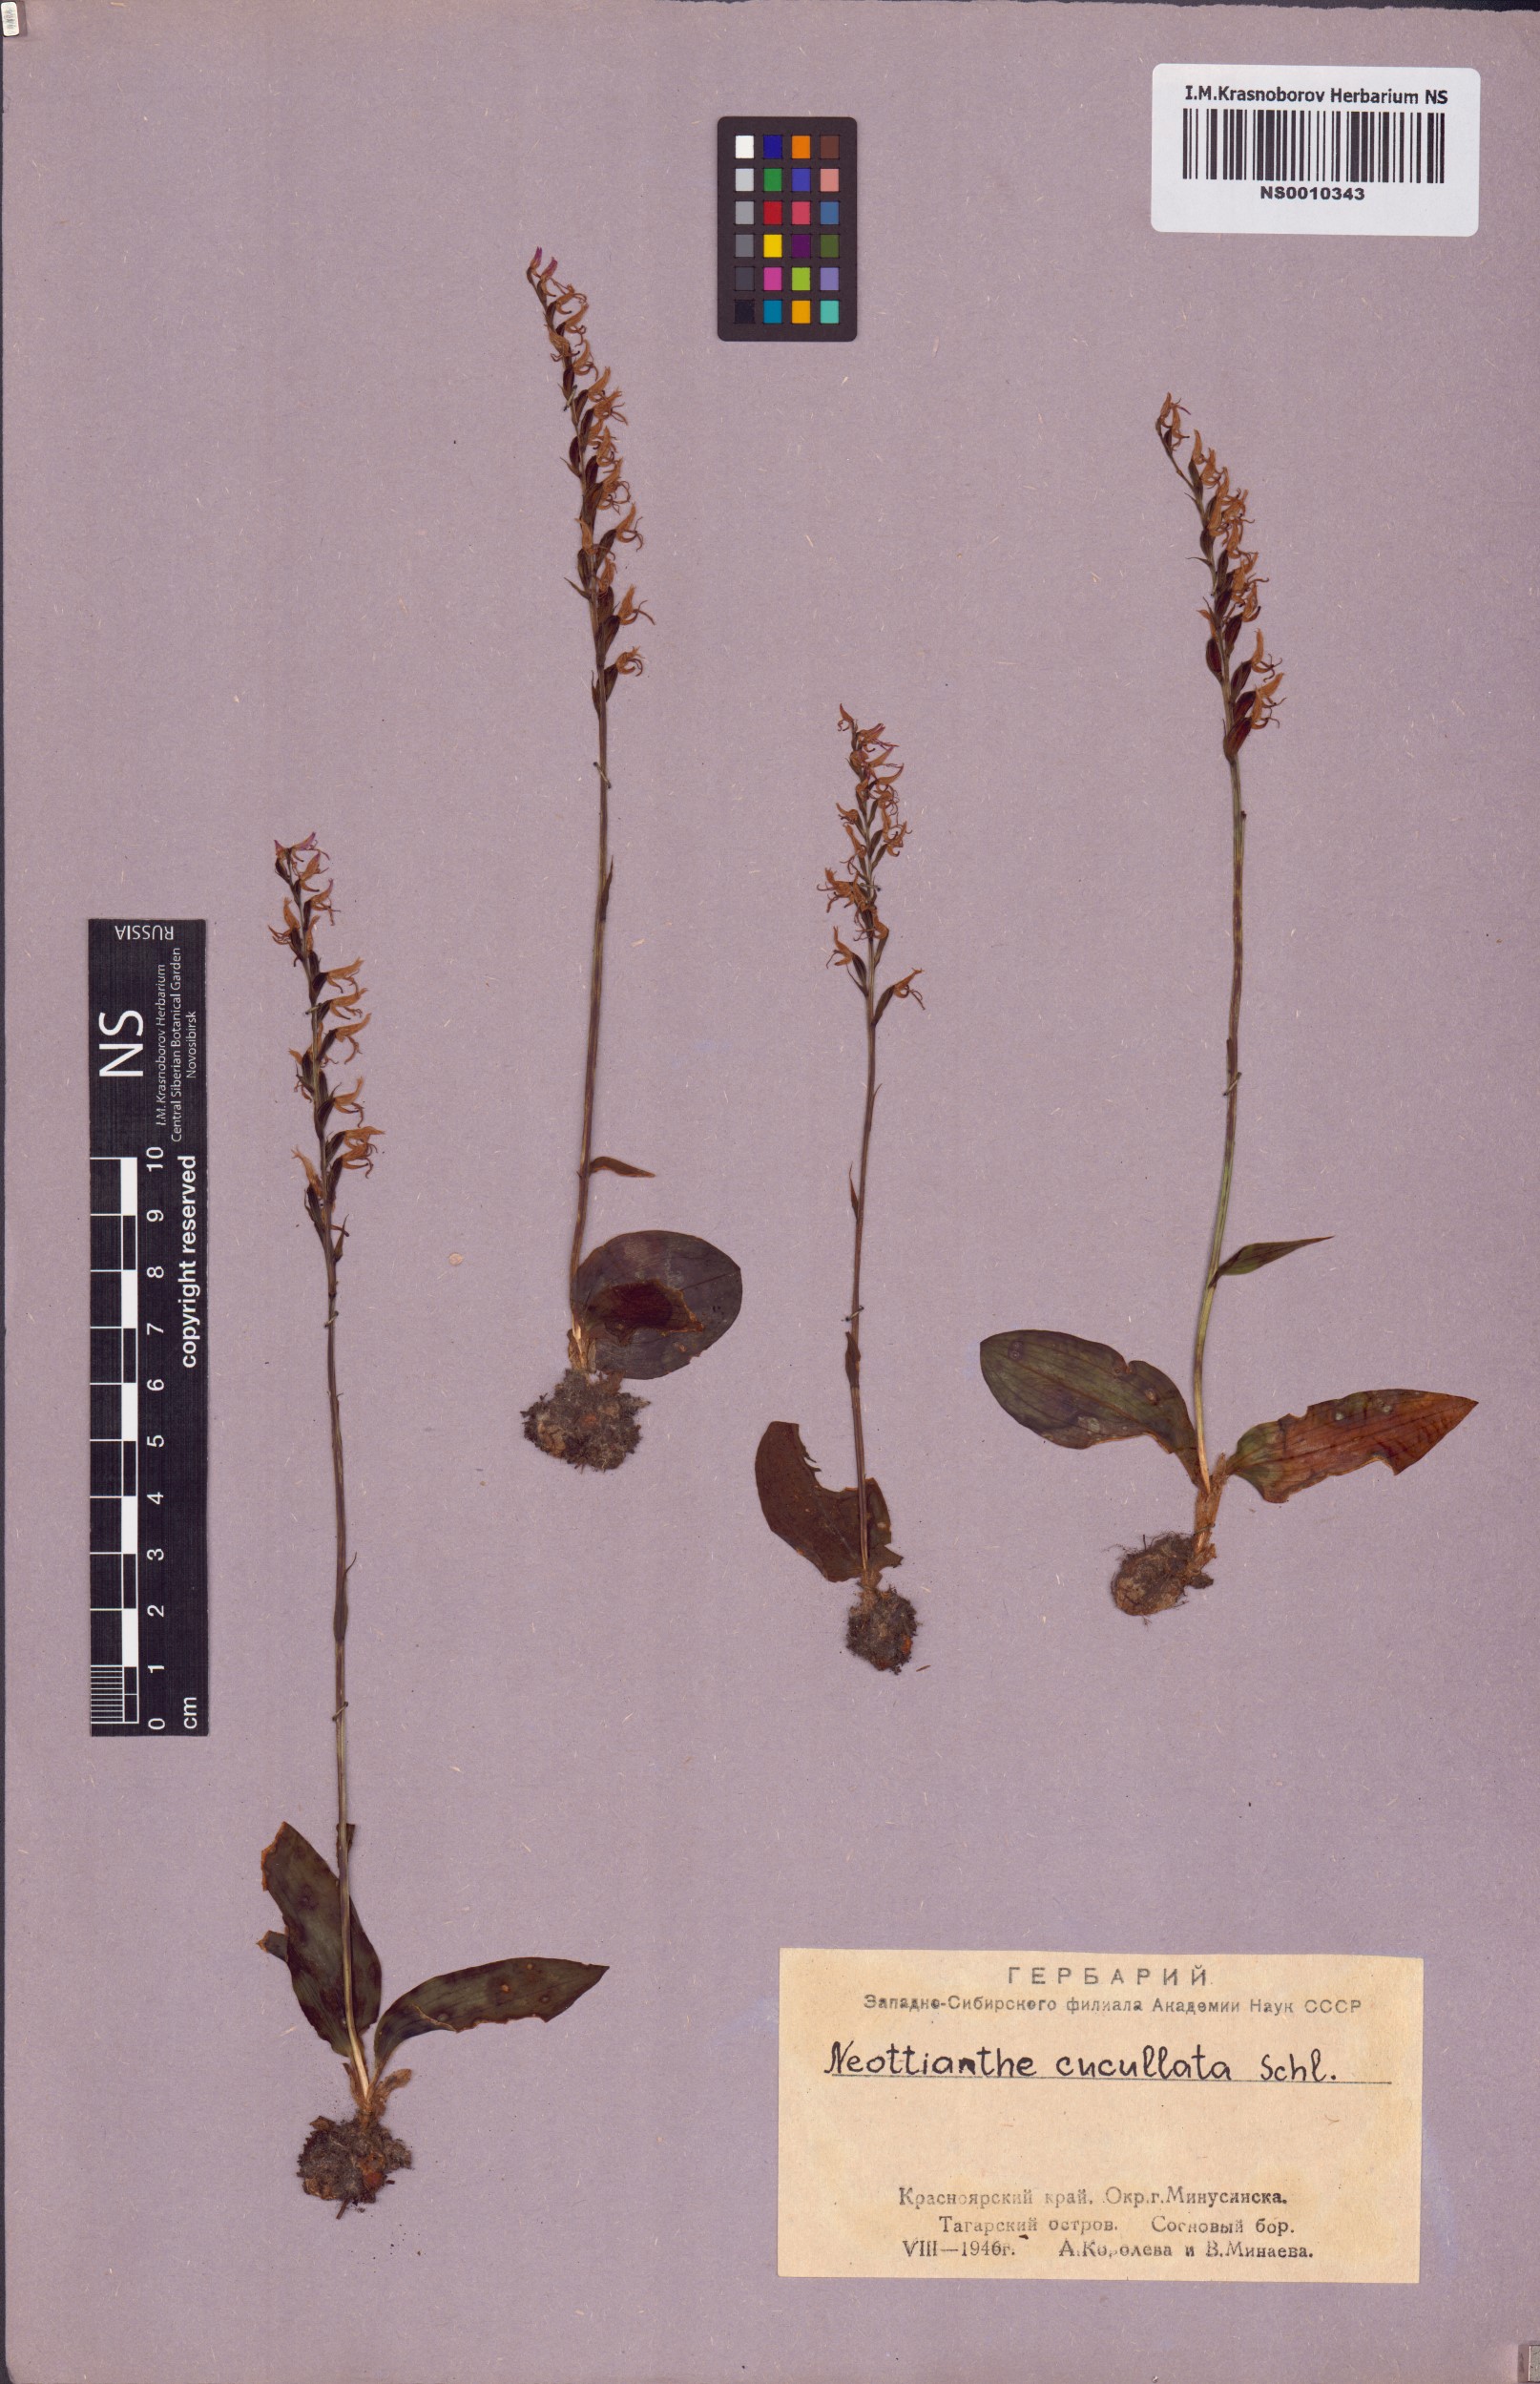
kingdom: Plantae
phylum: Tracheophyta
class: Liliopsida
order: Asparagales
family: Orchidaceae
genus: Hemipilia
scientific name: Hemipilia cucullata
